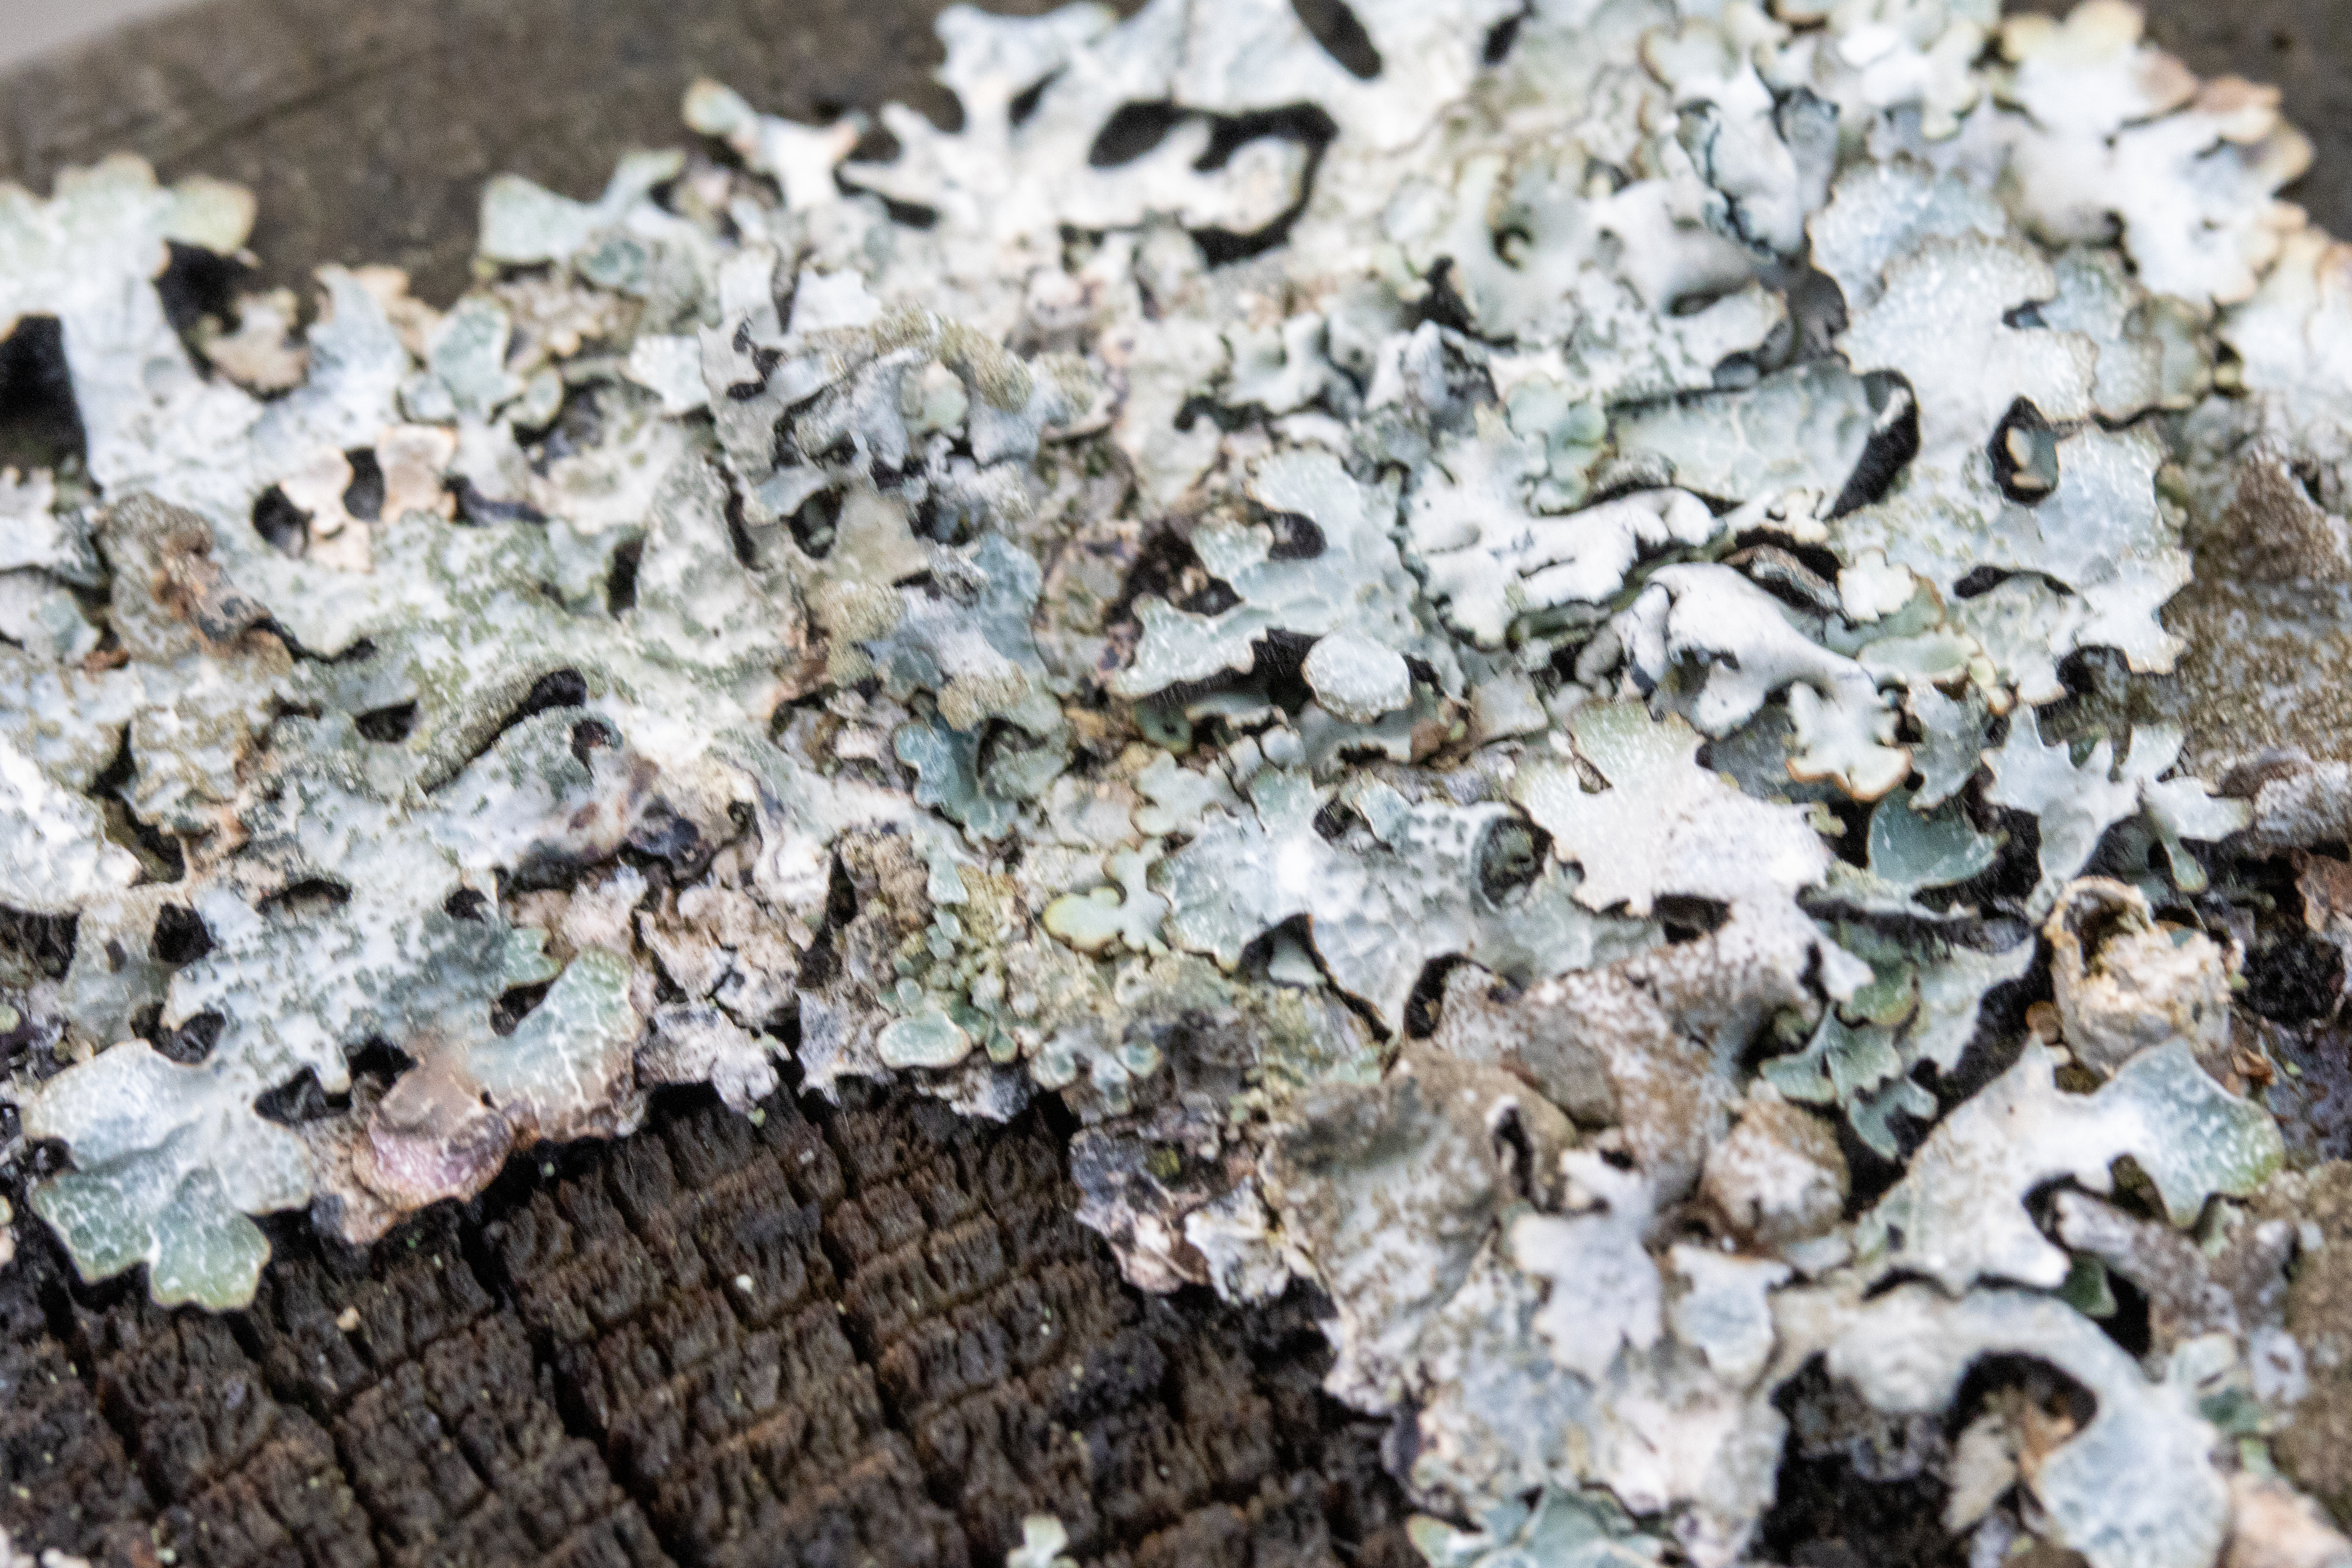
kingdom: Fungi
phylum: Ascomycota
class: Lecanoromycetes
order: Lecanorales
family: Parmeliaceae
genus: Parmelia
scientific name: Parmelia sulcata
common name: Rynket skållav
